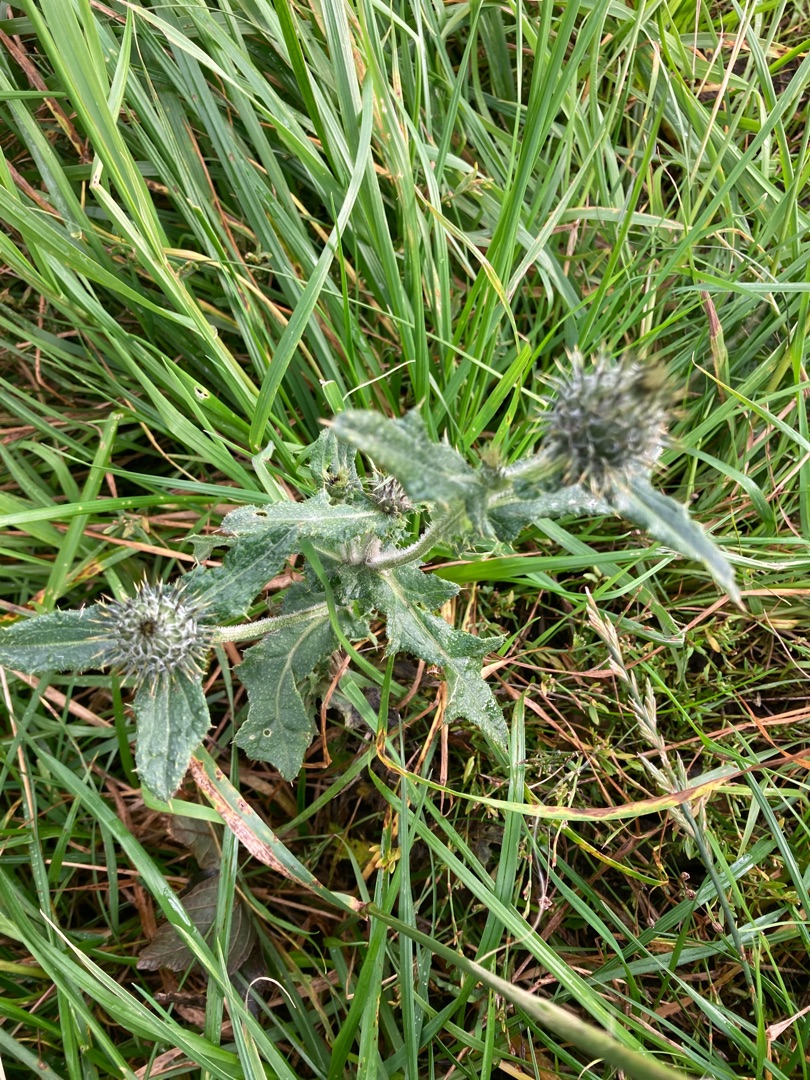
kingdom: Plantae
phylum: Tracheophyta
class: Magnoliopsida
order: Asterales
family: Asteraceae
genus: Cirsium
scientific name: Cirsium vulgare
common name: Horse-tidsel
